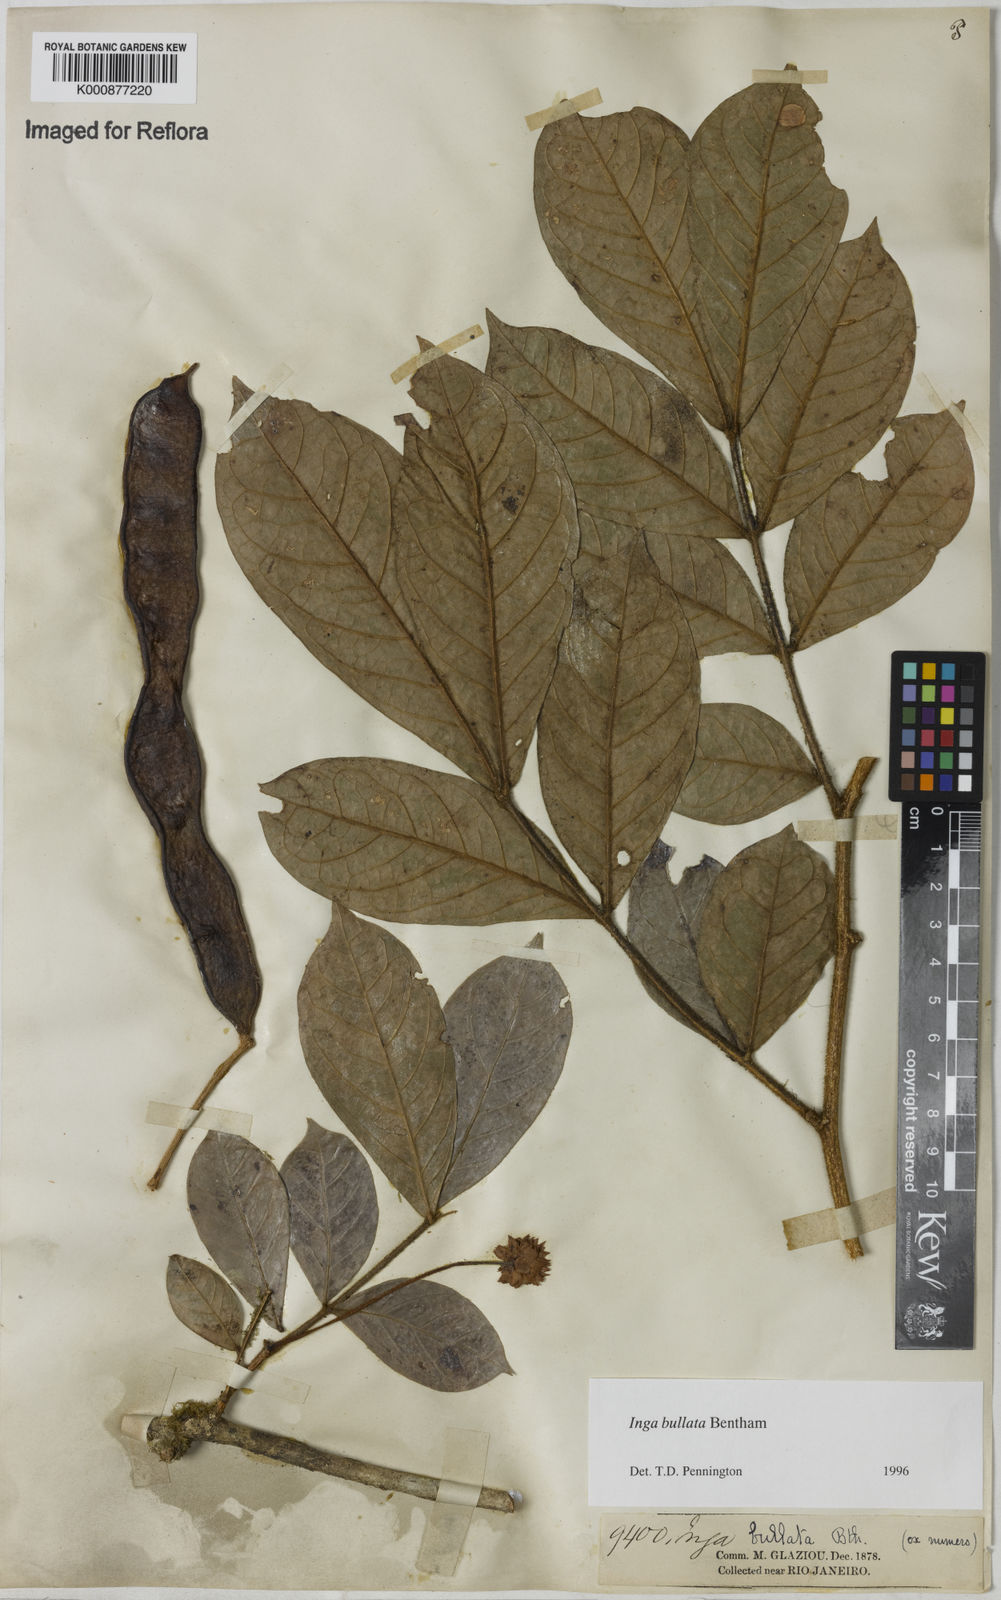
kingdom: Plantae
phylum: Tracheophyta
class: Magnoliopsida
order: Fabales
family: Fabaceae
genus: Inga
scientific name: Inga bullata
